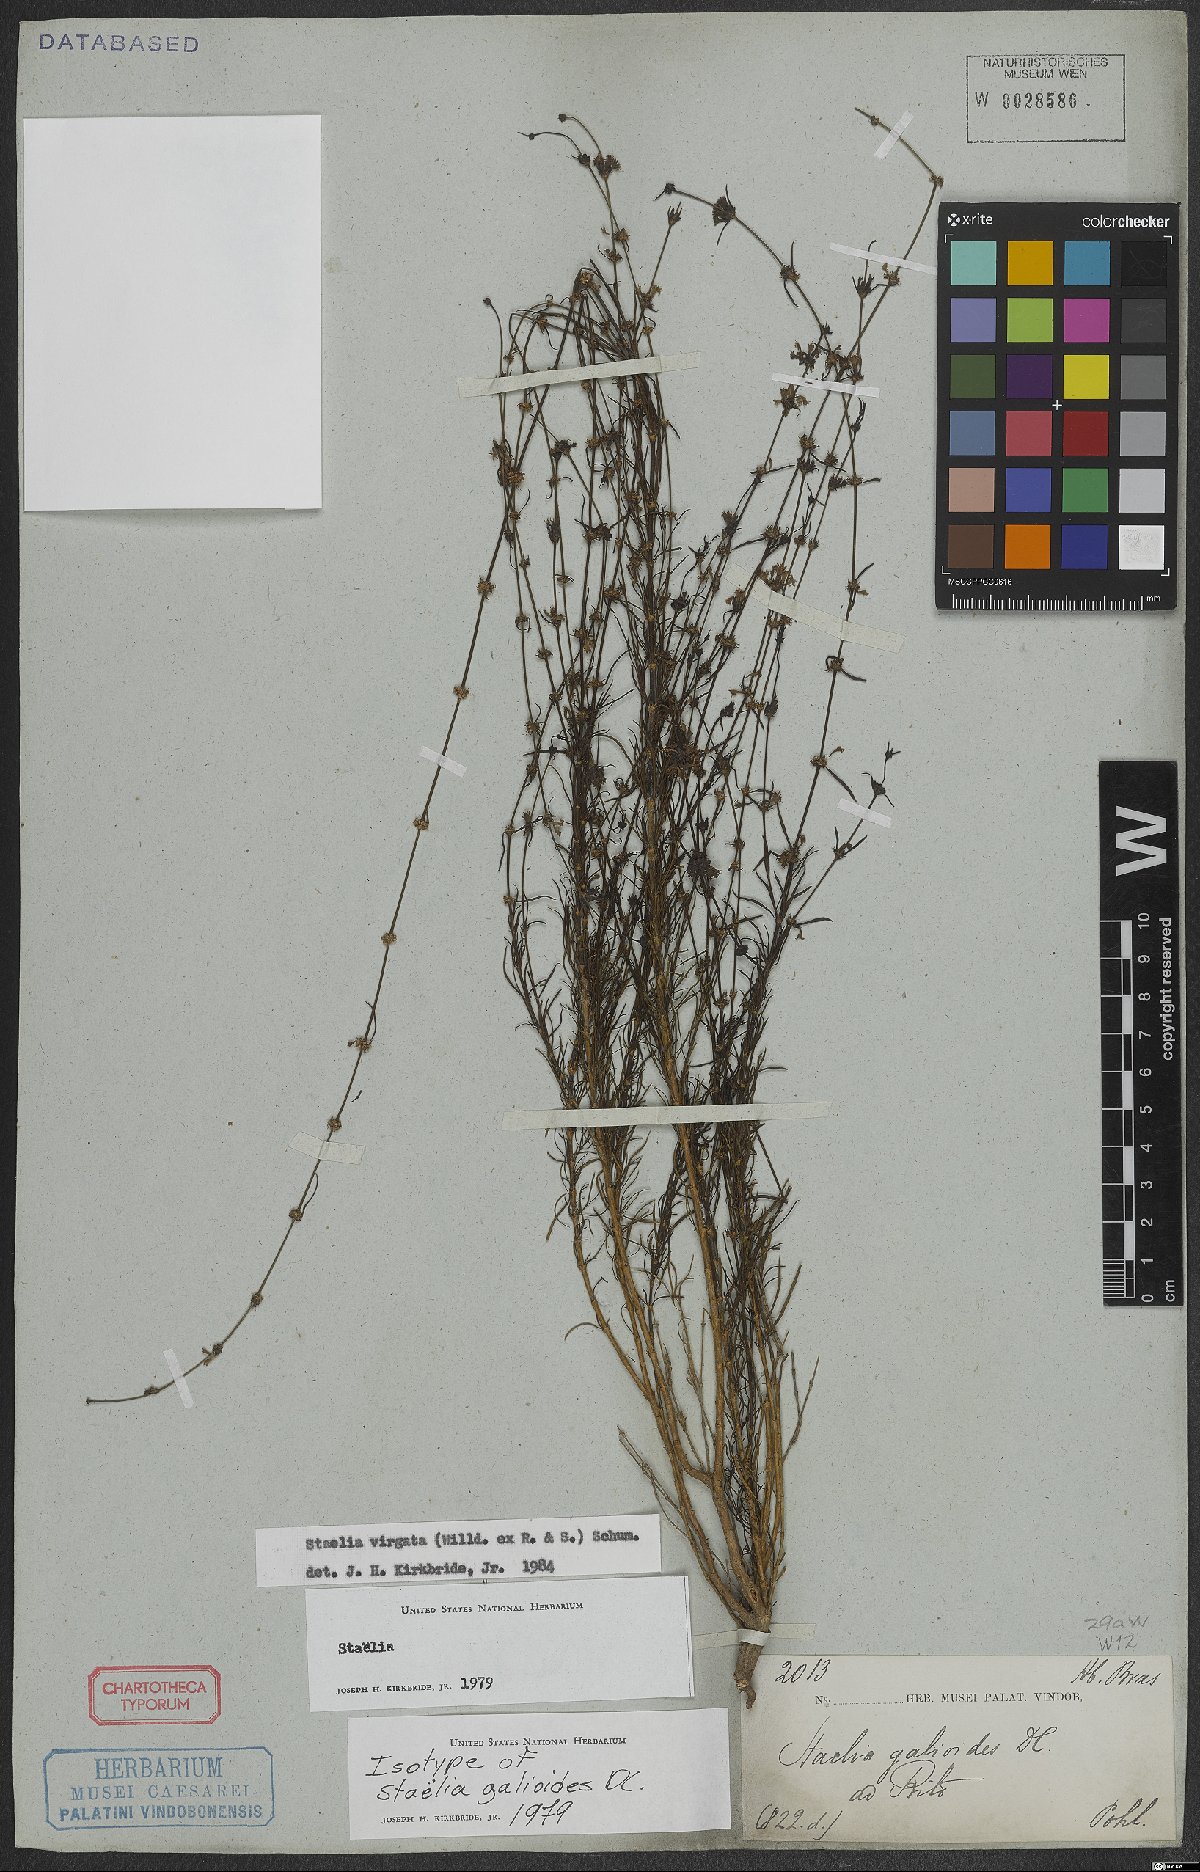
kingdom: Plantae
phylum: Tracheophyta
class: Magnoliopsida
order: Gentianales
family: Rubiaceae
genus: Staelia
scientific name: Staelia virgata
